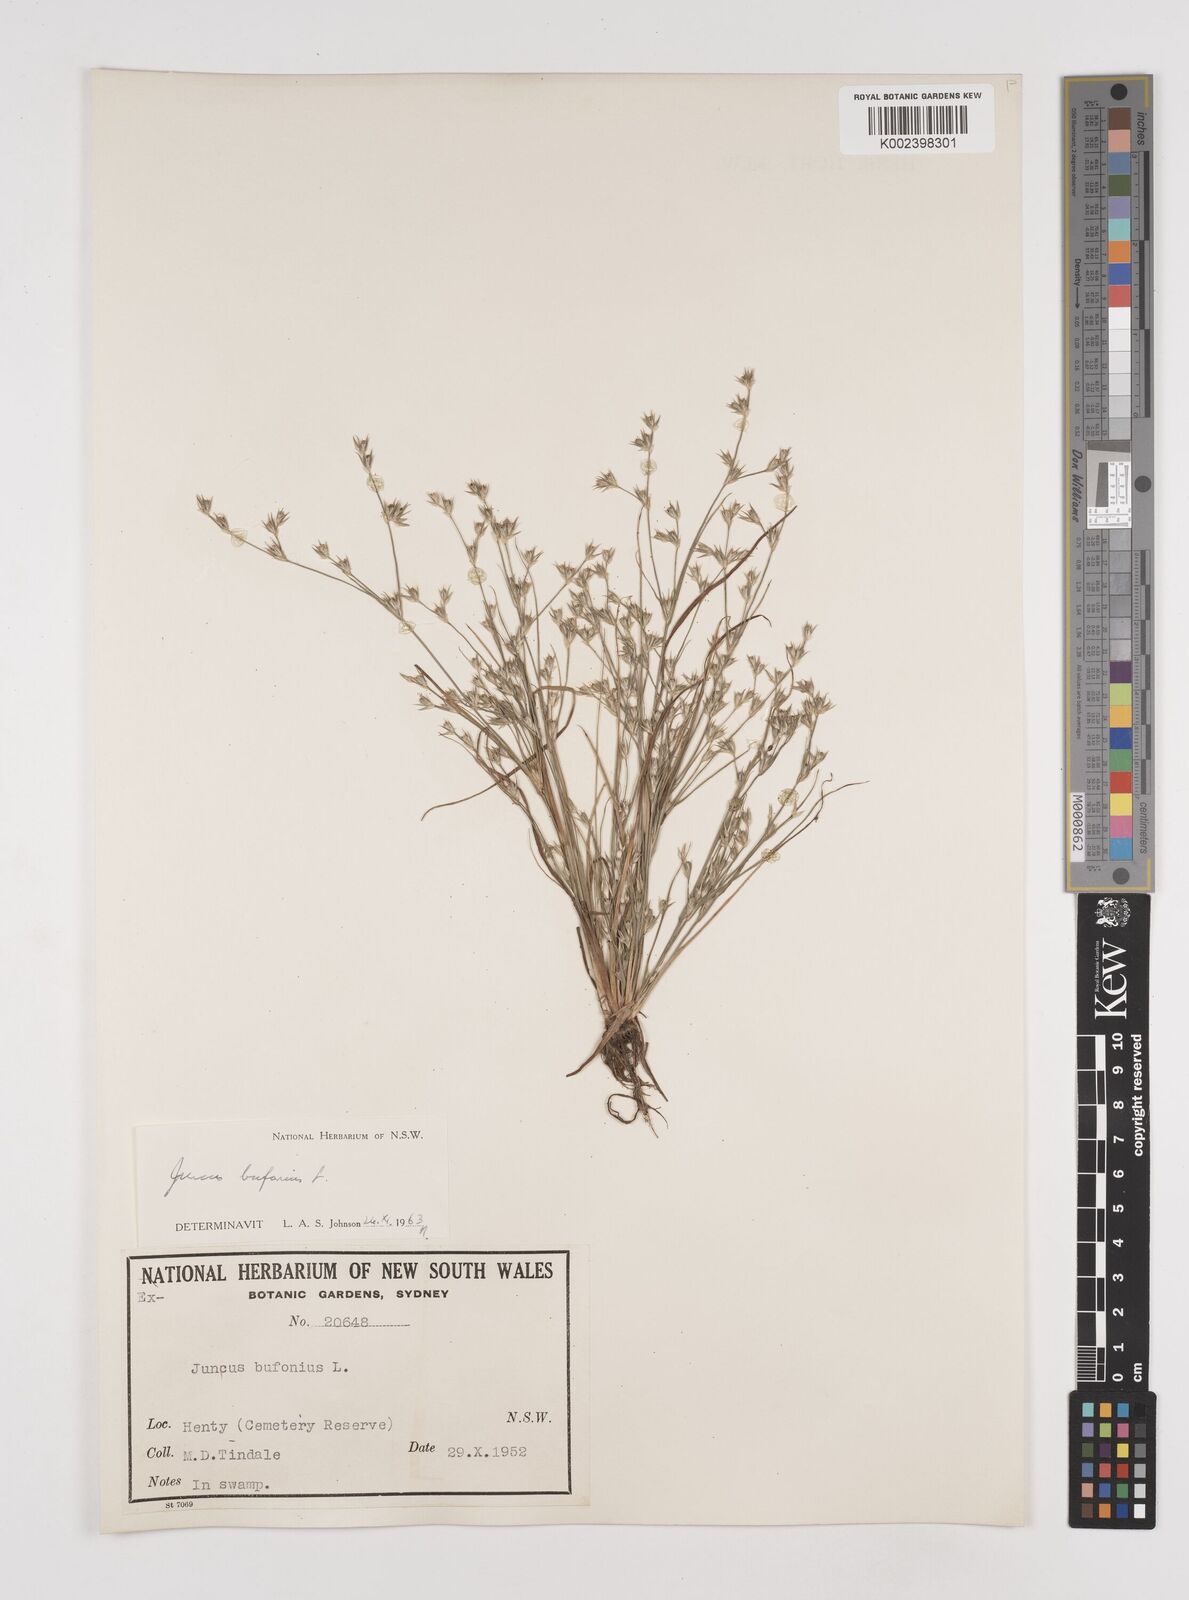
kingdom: Plantae
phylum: Tracheophyta
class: Liliopsida
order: Poales
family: Juncaceae
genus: Juncus
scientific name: Juncus bufonius
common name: Toad rush
